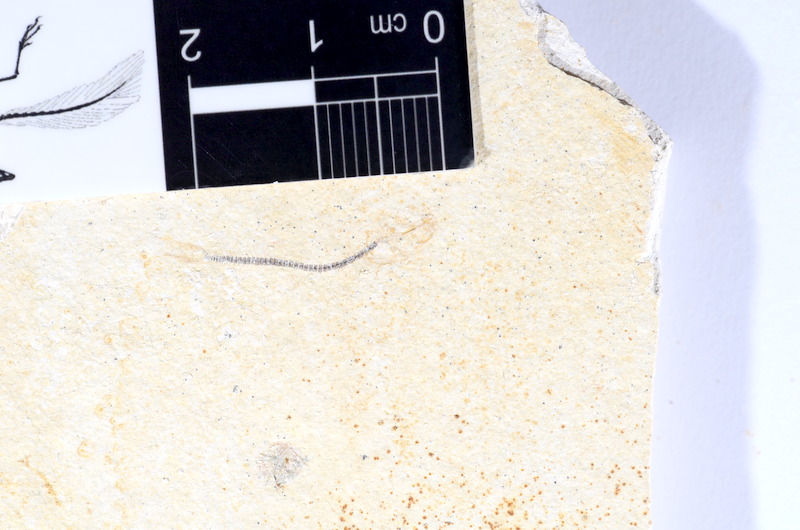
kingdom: Animalia
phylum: Chordata
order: Salmoniformes
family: Orthogonikleithridae
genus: Orthogonikleithrus
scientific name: Orthogonikleithrus hoelli
